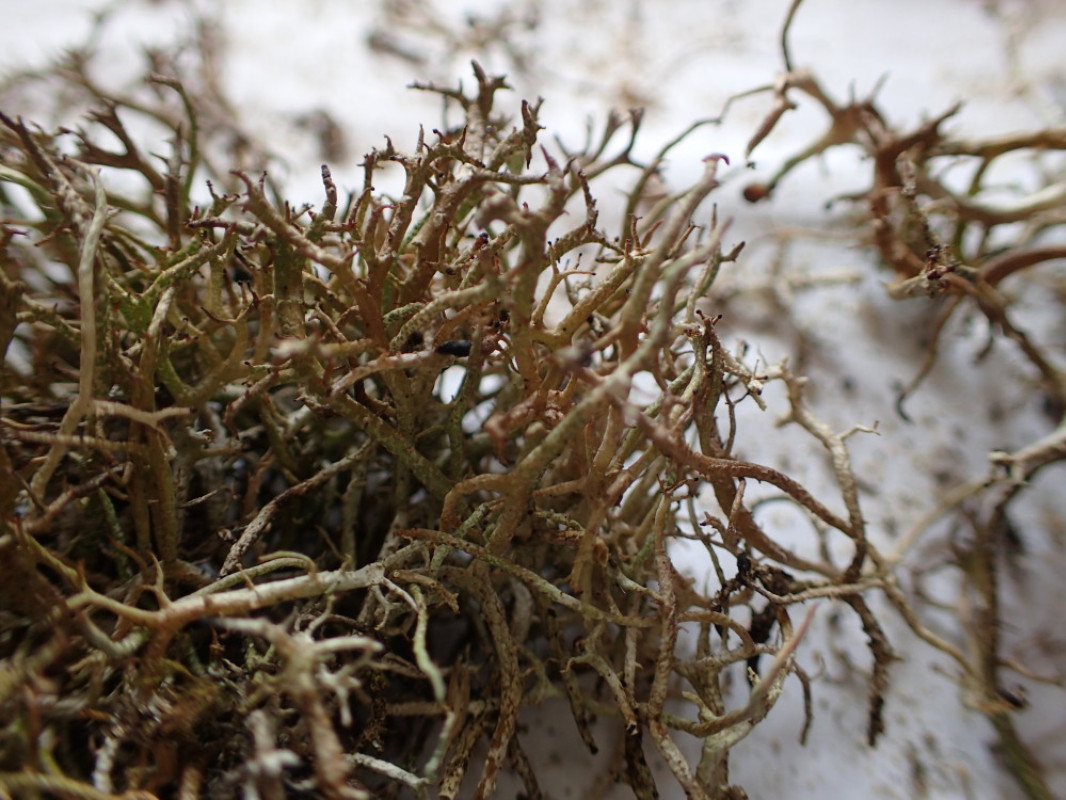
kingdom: Fungi
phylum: Ascomycota
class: Lecanoromycetes
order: Lecanorales
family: Cladoniaceae
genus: Cladonia
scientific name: Cladonia furcata
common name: kløftet bægerlav
